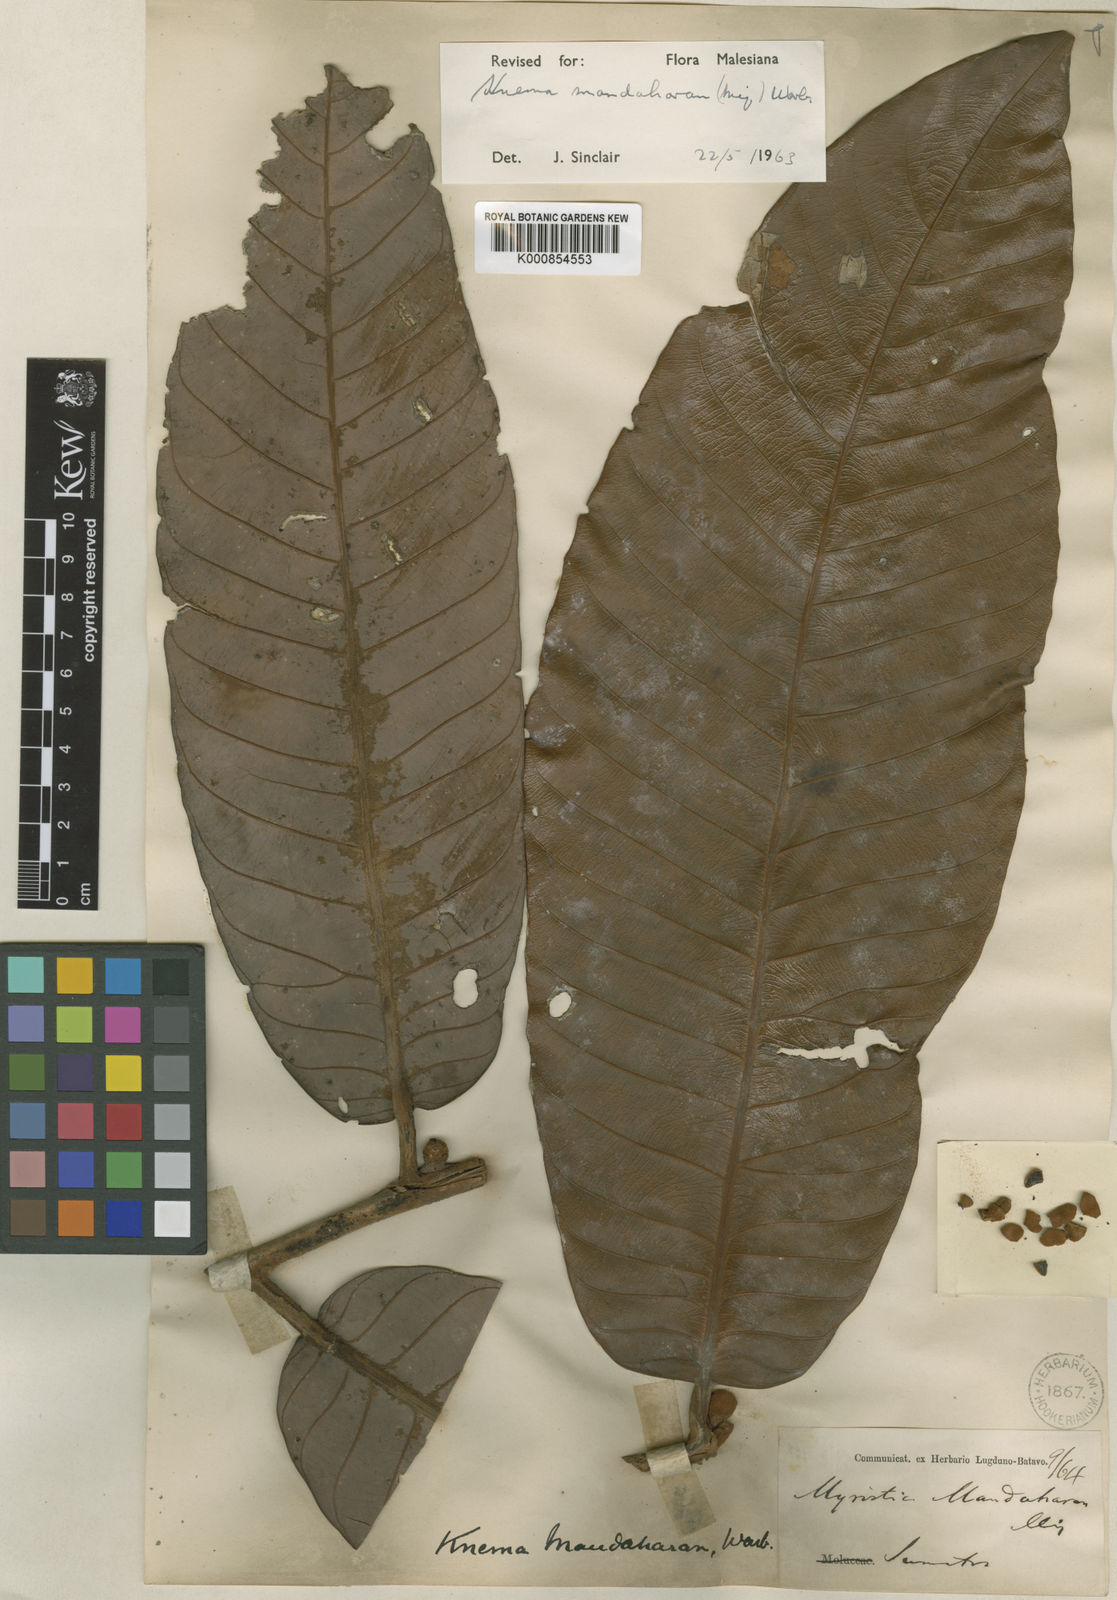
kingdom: Plantae
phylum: Tracheophyta
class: Magnoliopsida
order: Magnoliales
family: Myristicaceae
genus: Knema
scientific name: Knema mandaharan
